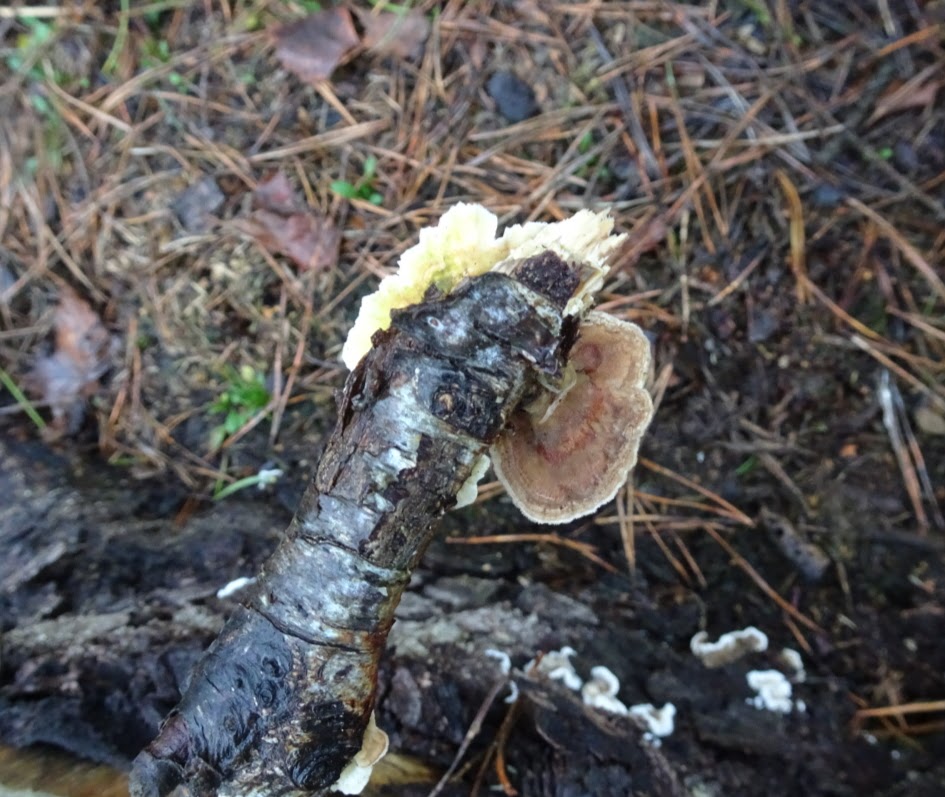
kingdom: Fungi
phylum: Basidiomycota
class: Agaricomycetes
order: Polyporales
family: Polyporaceae
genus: Trametes
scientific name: Trametes ochracea
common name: bæltet læderporesvamp
